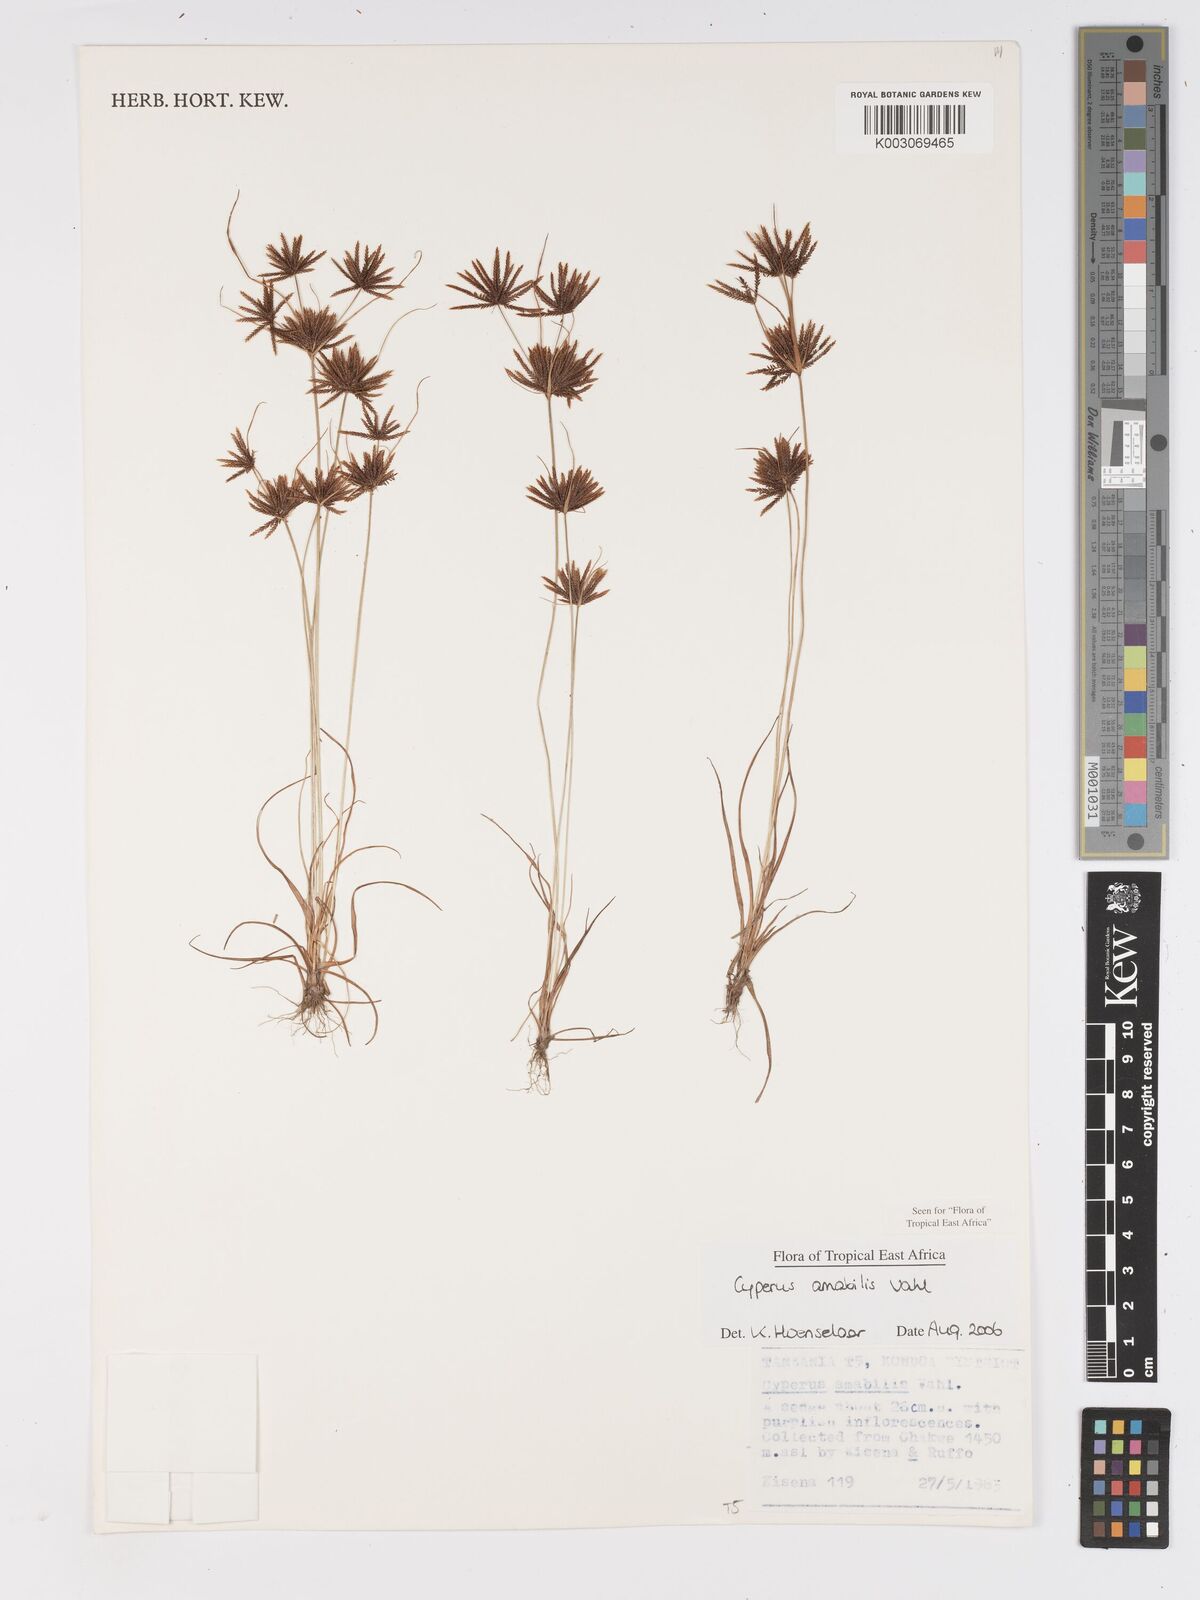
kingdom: Plantae
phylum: Tracheophyta
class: Liliopsida
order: Poales
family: Cyperaceae
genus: Cyperus
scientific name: Cyperus amabilis
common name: Foothill flat sedge
